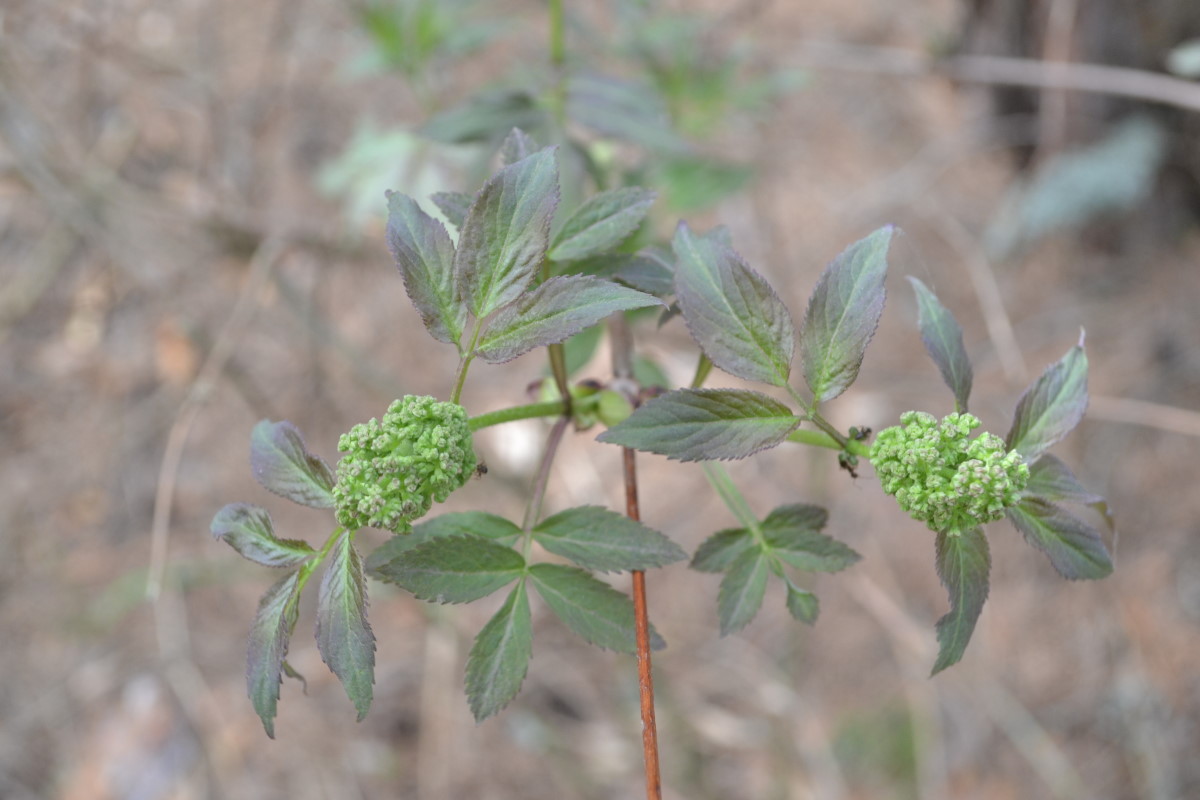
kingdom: Plantae
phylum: Tracheophyta
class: Magnoliopsida
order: Dipsacales
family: Viburnaceae
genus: Sambucus
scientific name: Sambucus racemosa
